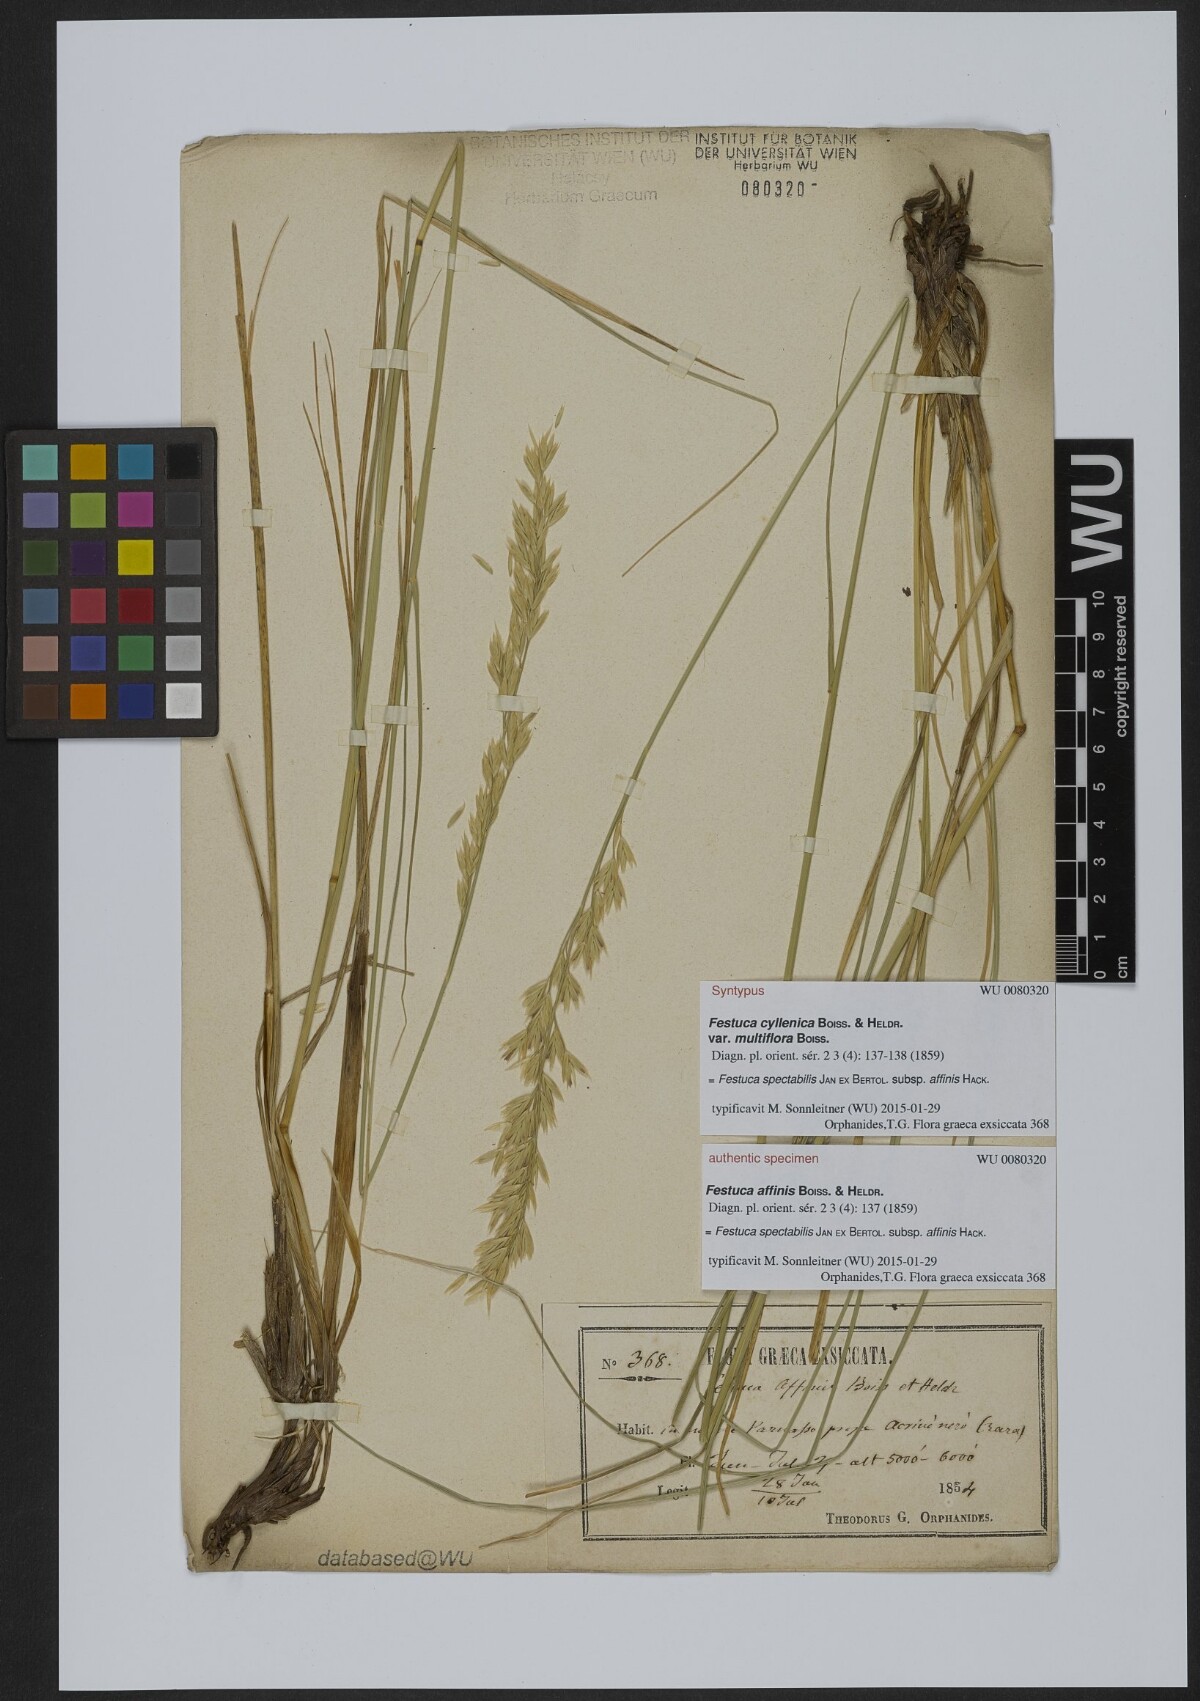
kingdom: Plantae
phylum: Tracheophyta
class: Liliopsida
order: Poales
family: Poaceae
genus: Festuca
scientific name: Festuca spectabilis
